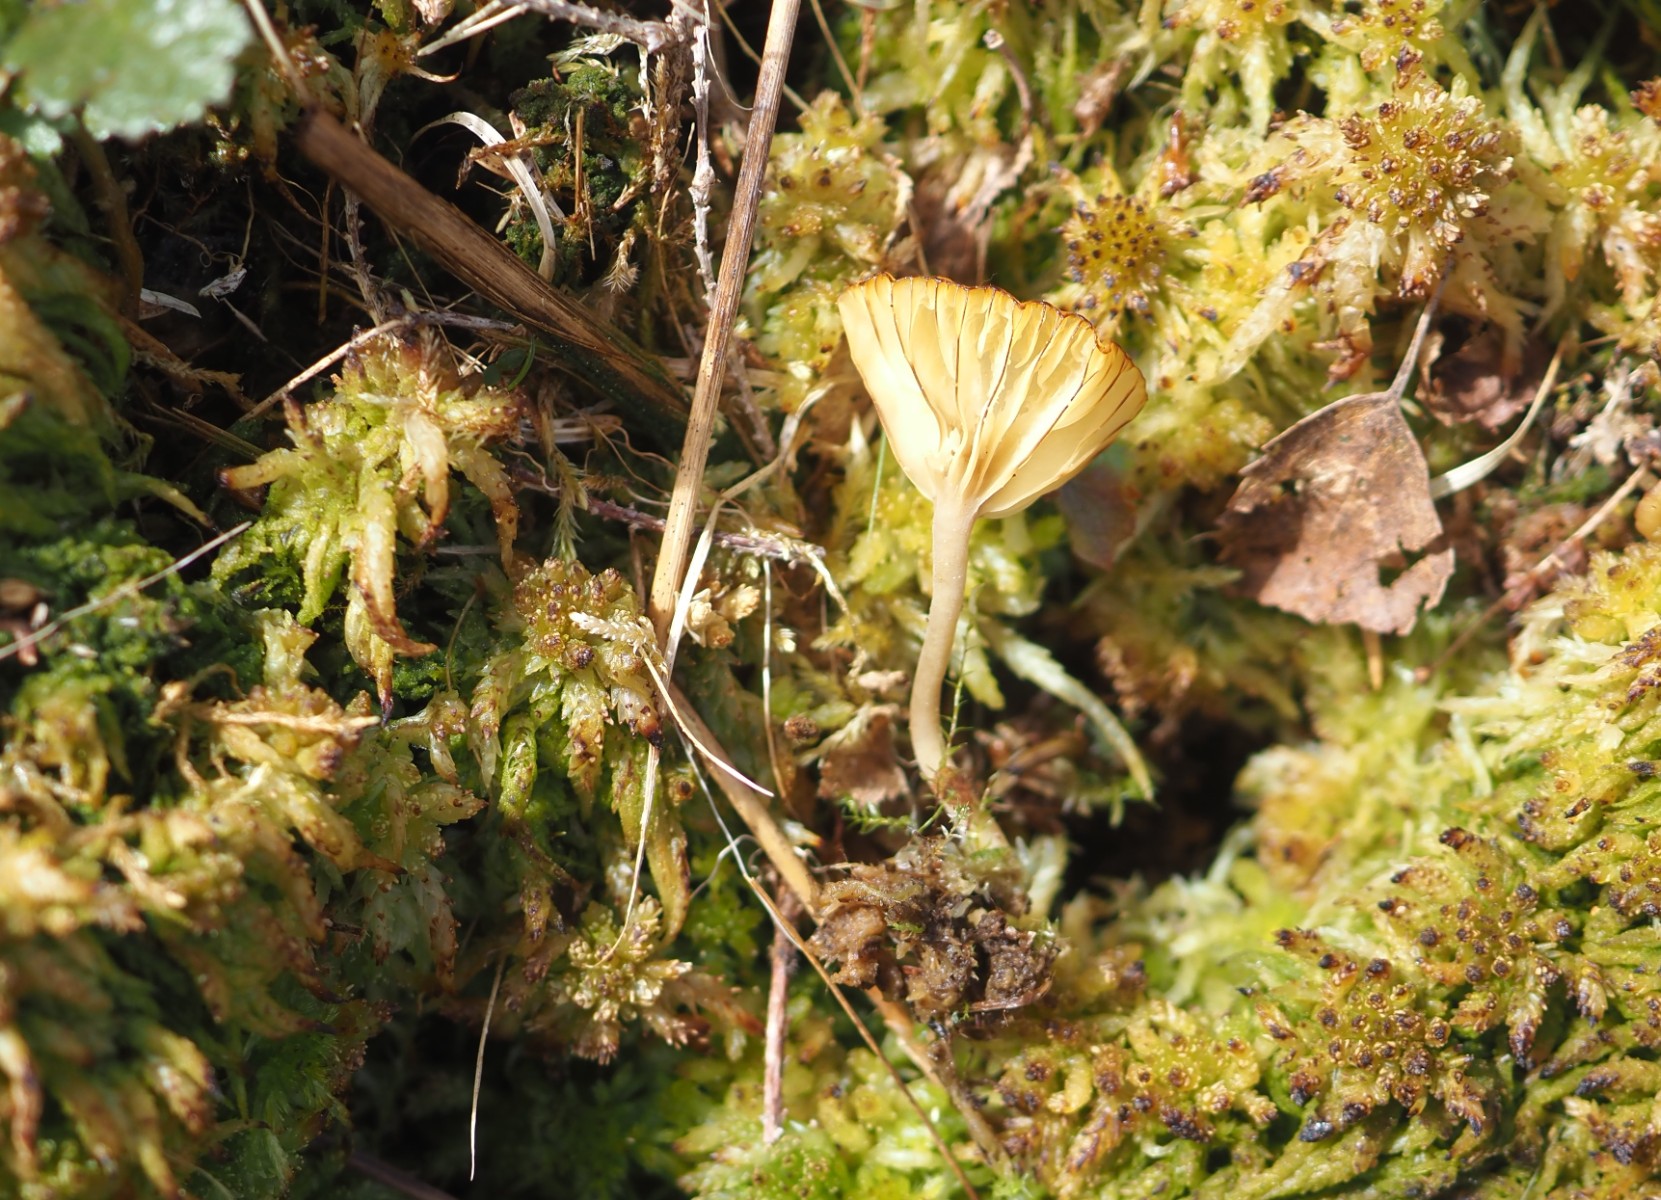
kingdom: Fungi
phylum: Basidiomycota
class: Agaricomycetes
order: Agaricales
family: Hygrophoraceae
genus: Lichenomphalia
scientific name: Lichenomphalia umbellifera
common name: tørve-lavhat
